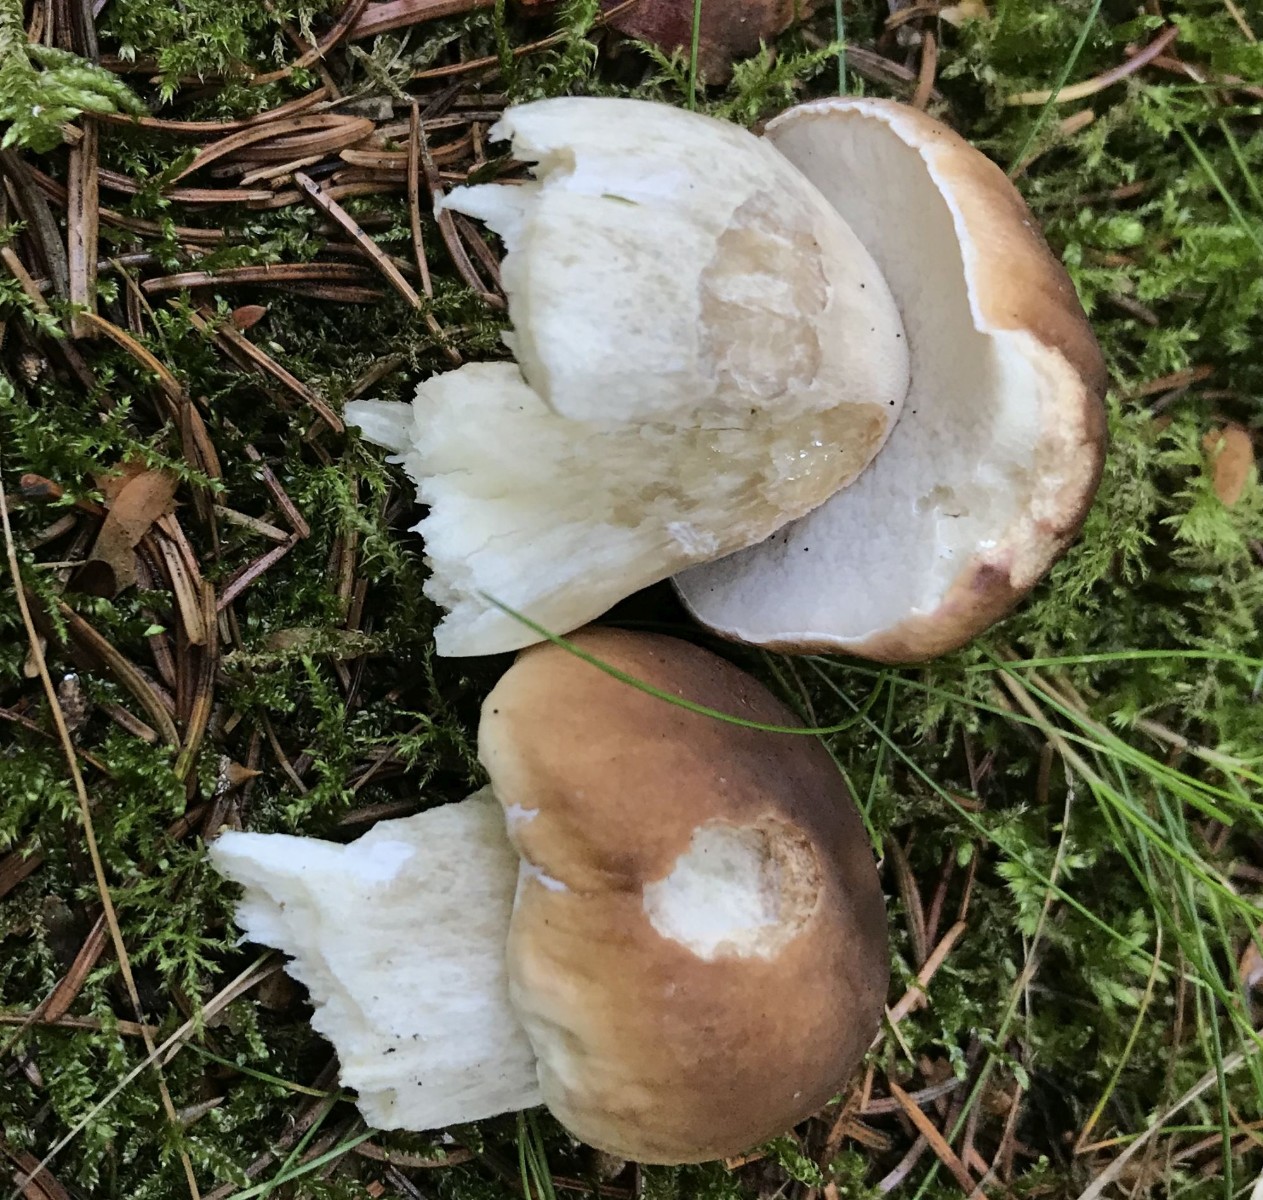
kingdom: Fungi
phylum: Basidiomycota
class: Agaricomycetes
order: Boletales
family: Boletaceae
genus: Boletus
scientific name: Boletus edulis
